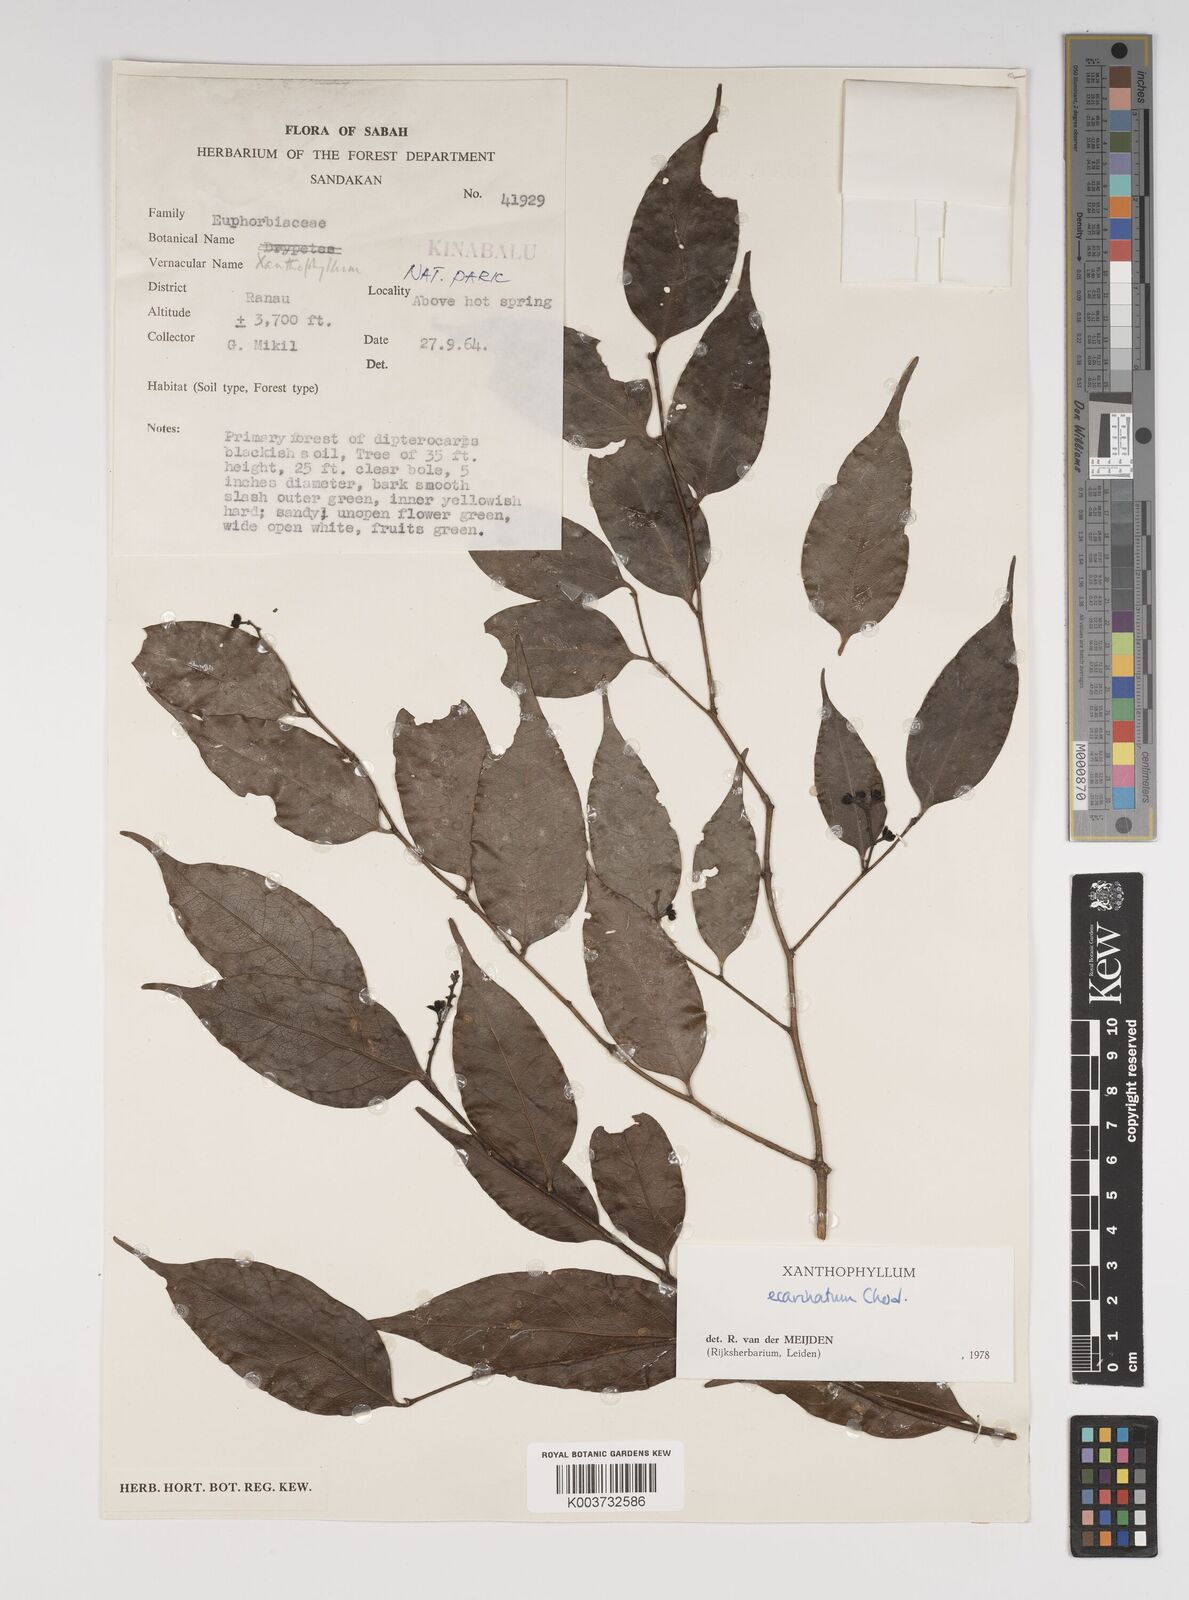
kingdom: Plantae
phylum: Tracheophyta
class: Magnoliopsida
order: Fabales
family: Polygalaceae
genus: Xanthophyllum
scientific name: Xanthophyllum ecarinatum
